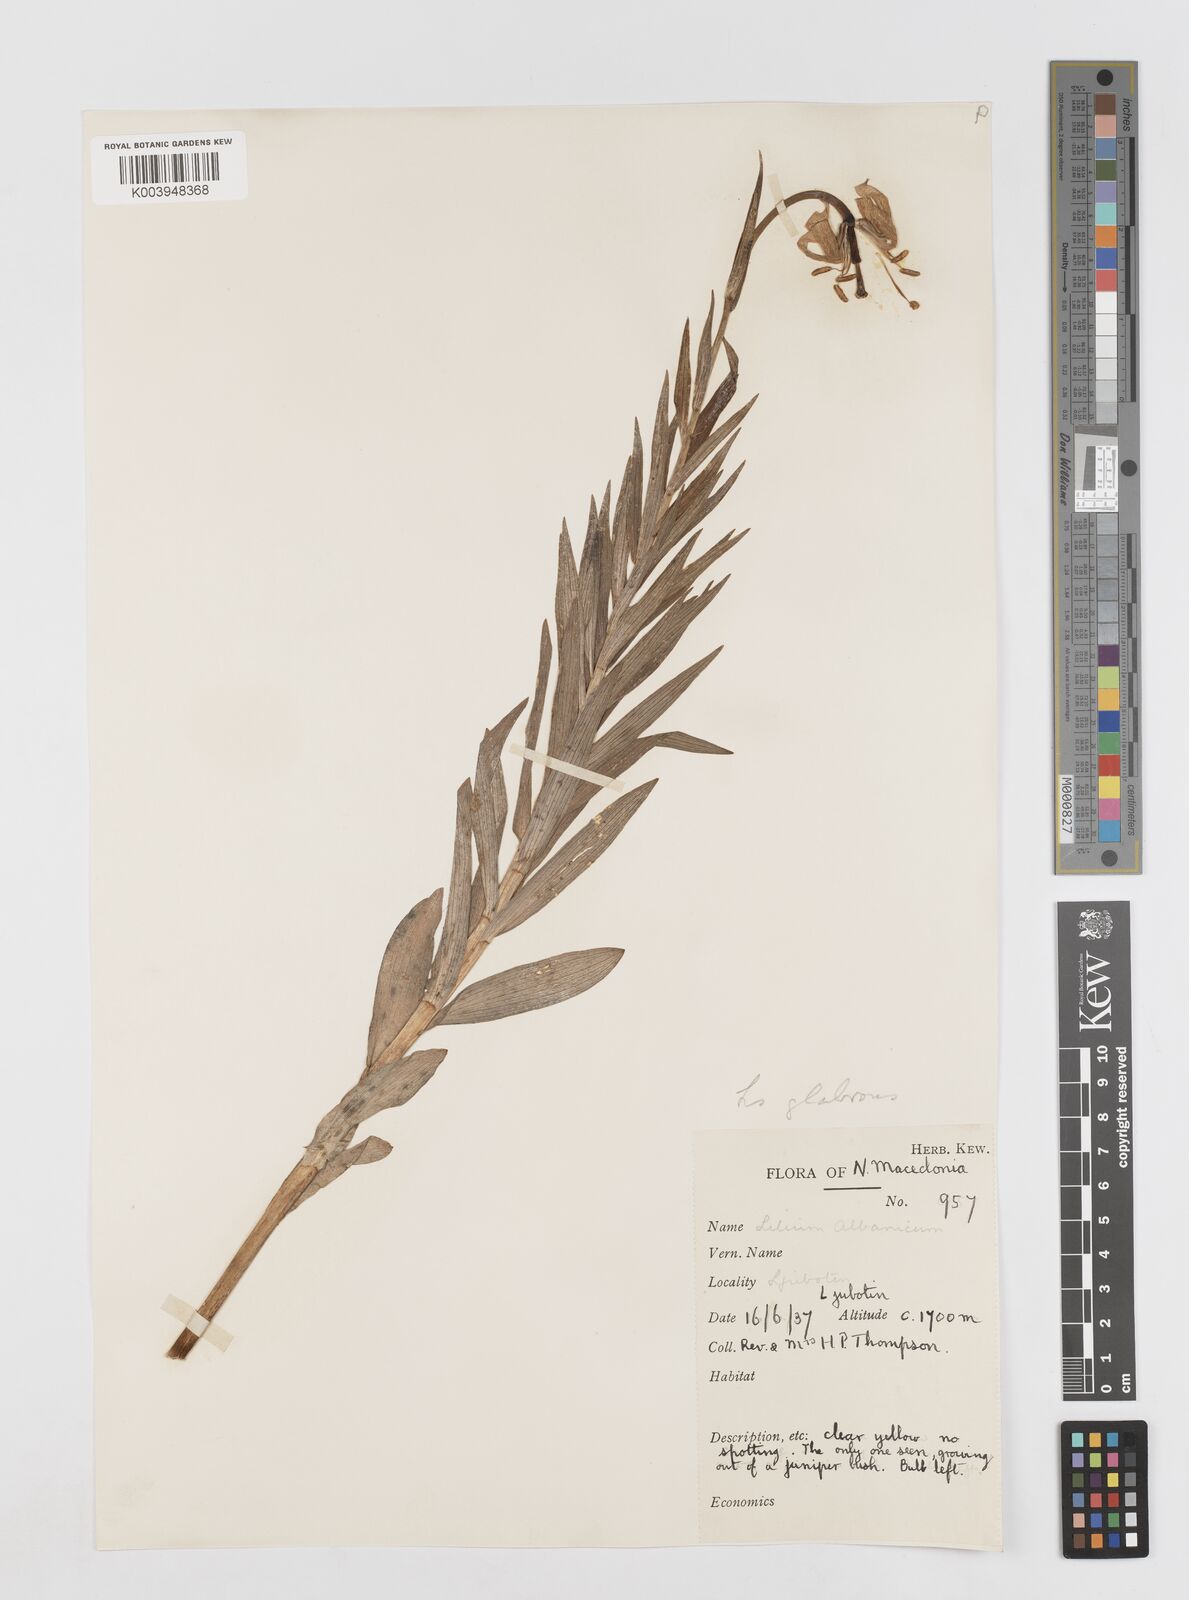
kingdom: Plantae
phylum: Tracheophyta
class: Liliopsida
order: Liliales
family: Liliaceae
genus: Lilium
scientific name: Lilium carniolicum
